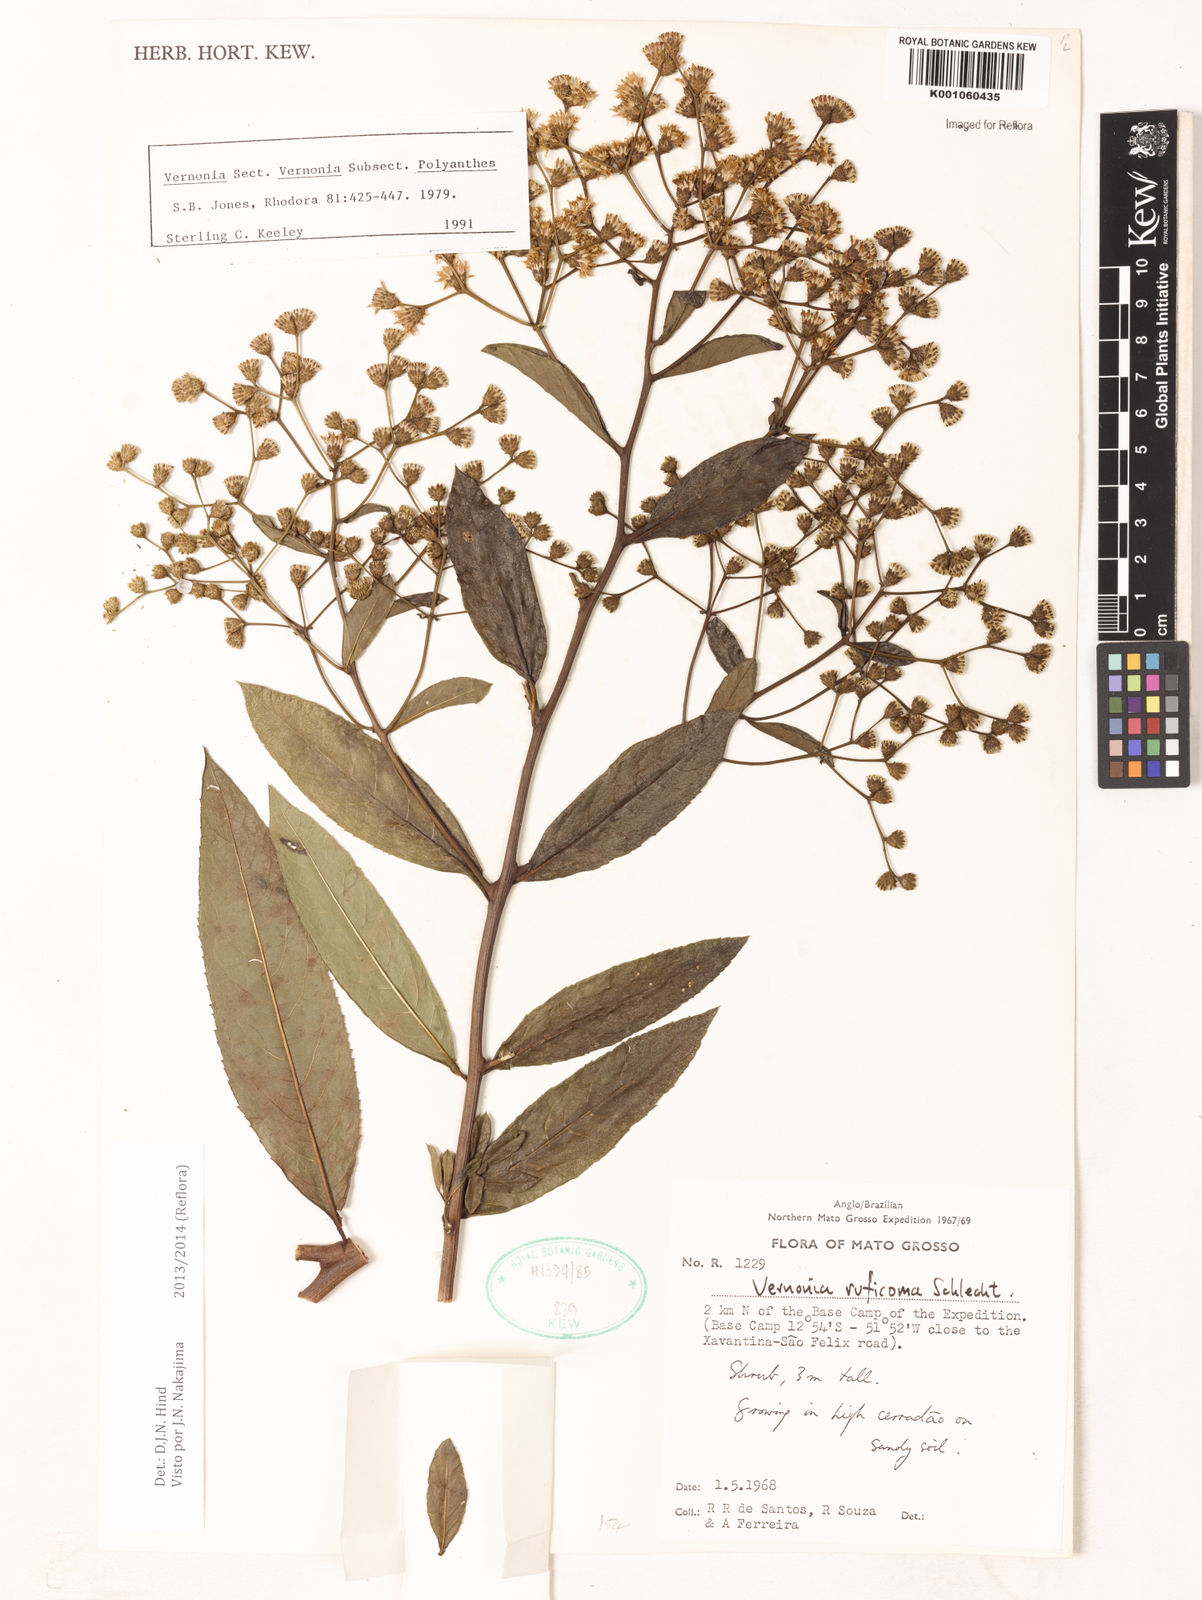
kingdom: Plantae
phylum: Tracheophyta
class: Magnoliopsida
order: Asterales
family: Asteraceae
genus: Vernonia
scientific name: Vernonia
